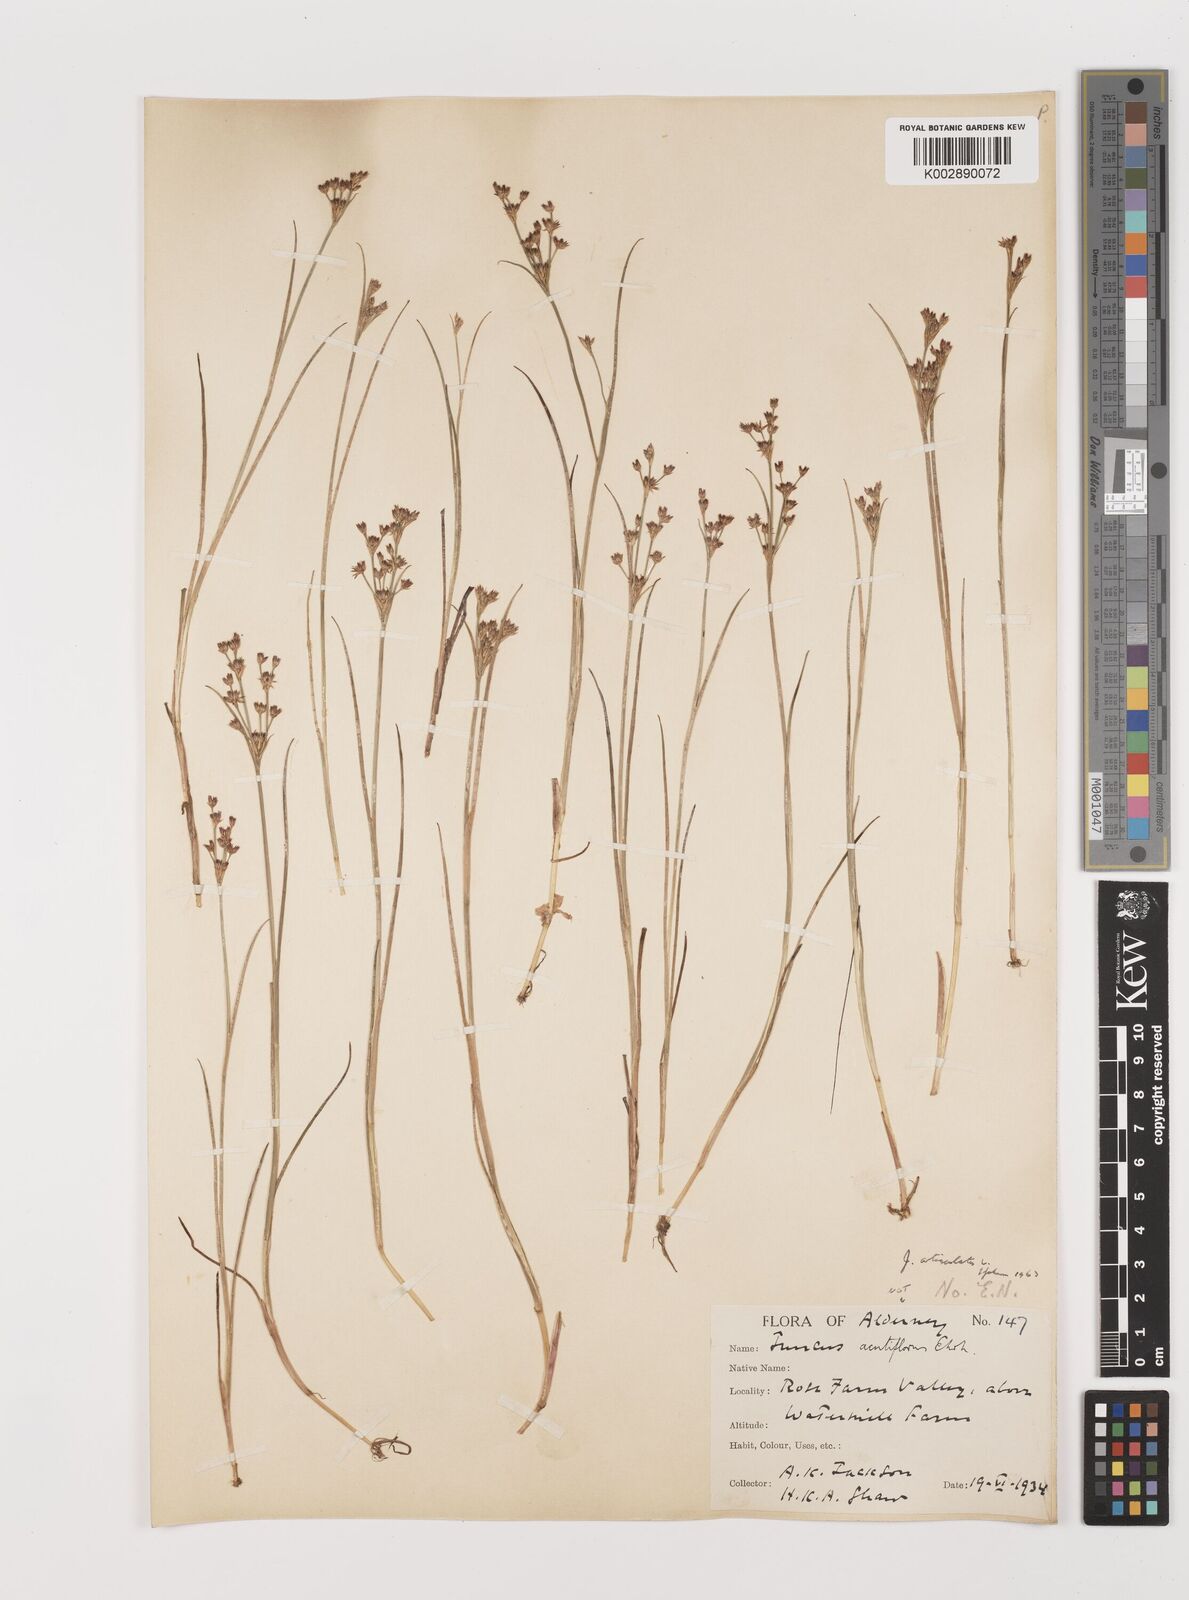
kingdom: Plantae
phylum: Tracheophyta
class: Liliopsida
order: Poales
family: Juncaceae
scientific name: Juncaceae
